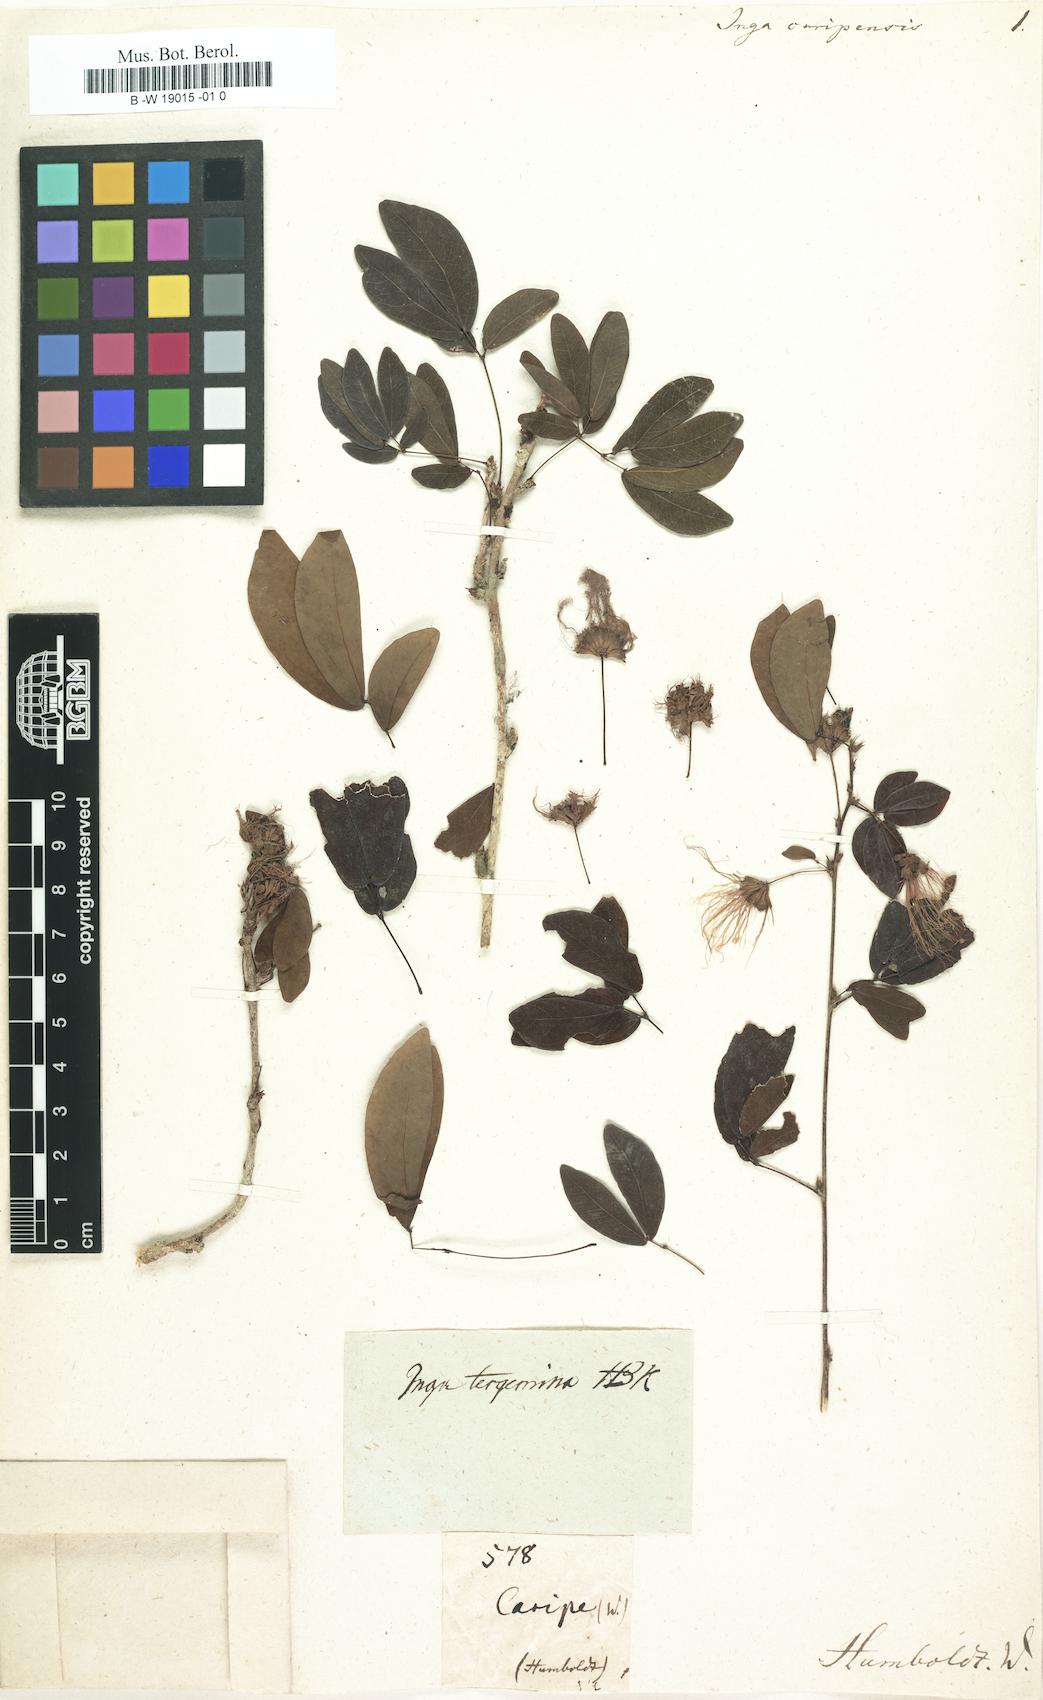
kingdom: Plantae
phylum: Tracheophyta
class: Magnoliopsida
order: Fabales
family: Fabaceae
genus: Calliandra
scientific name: Calliandra tergemina
